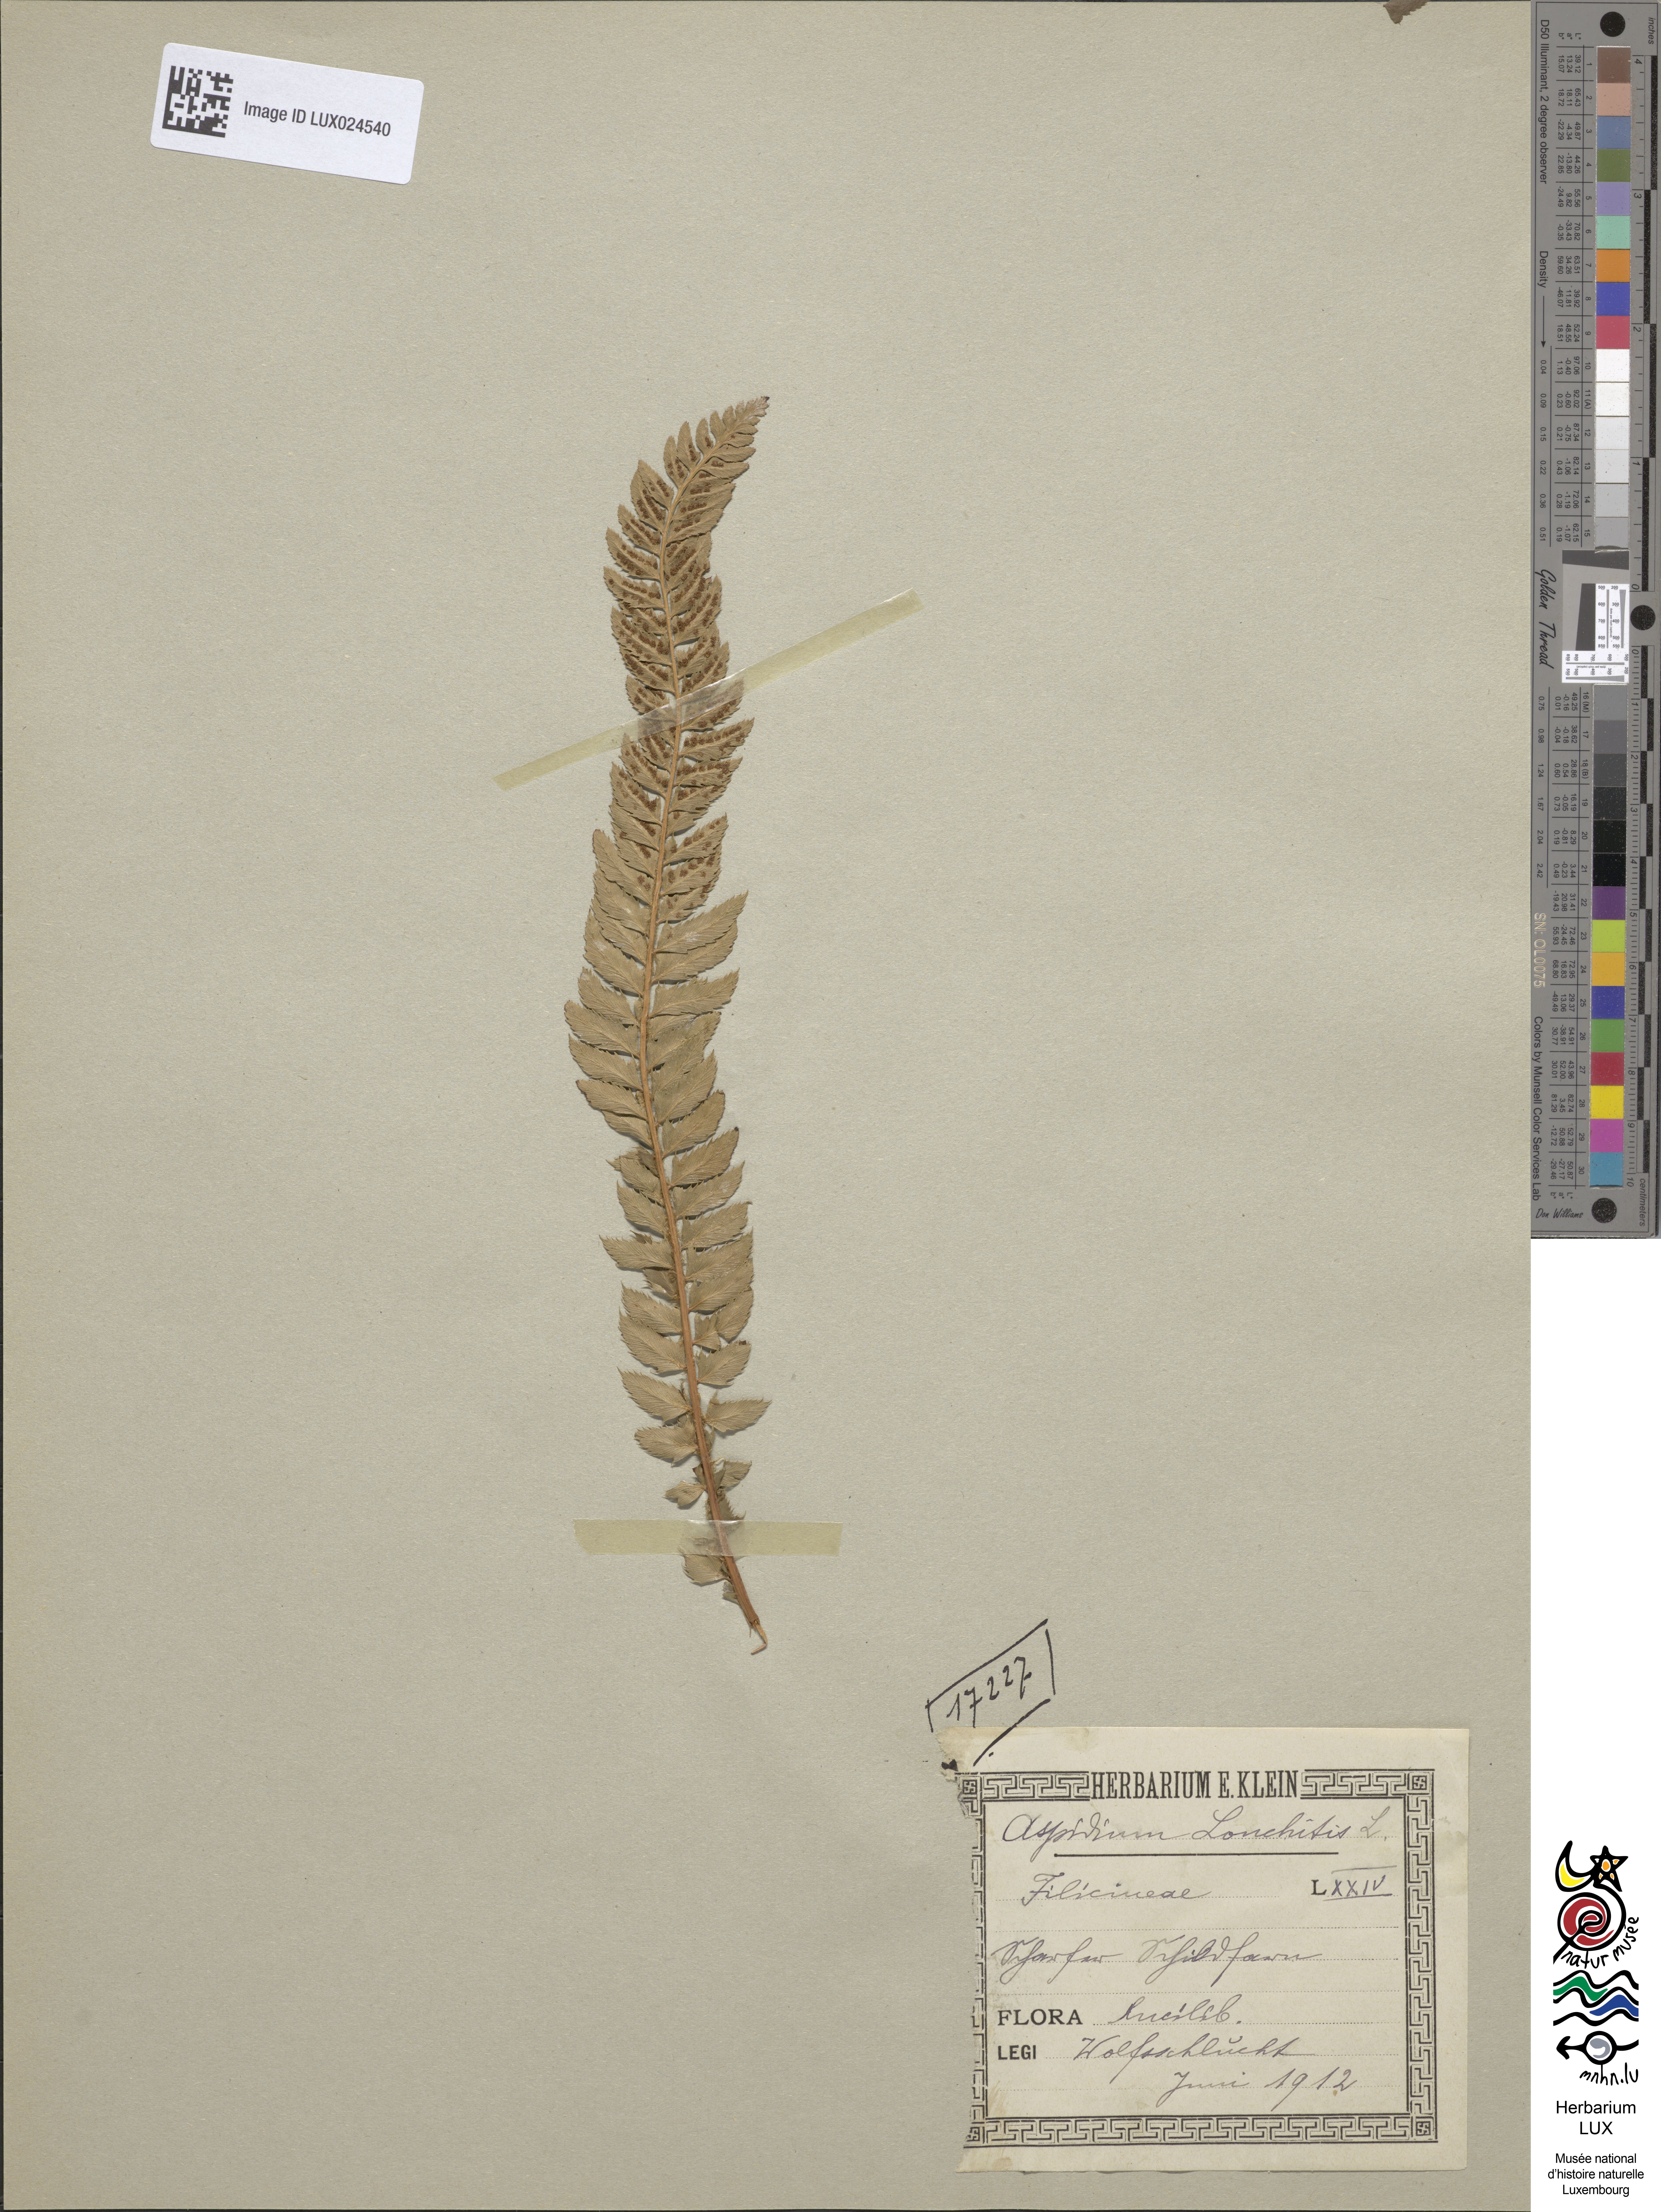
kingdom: Plantae
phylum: Tracheophyta
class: Polypodiopsida
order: Polypodiales
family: Dryopteridaceae
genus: Polystichum
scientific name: Polystichum lonchitis
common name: Holly fern
